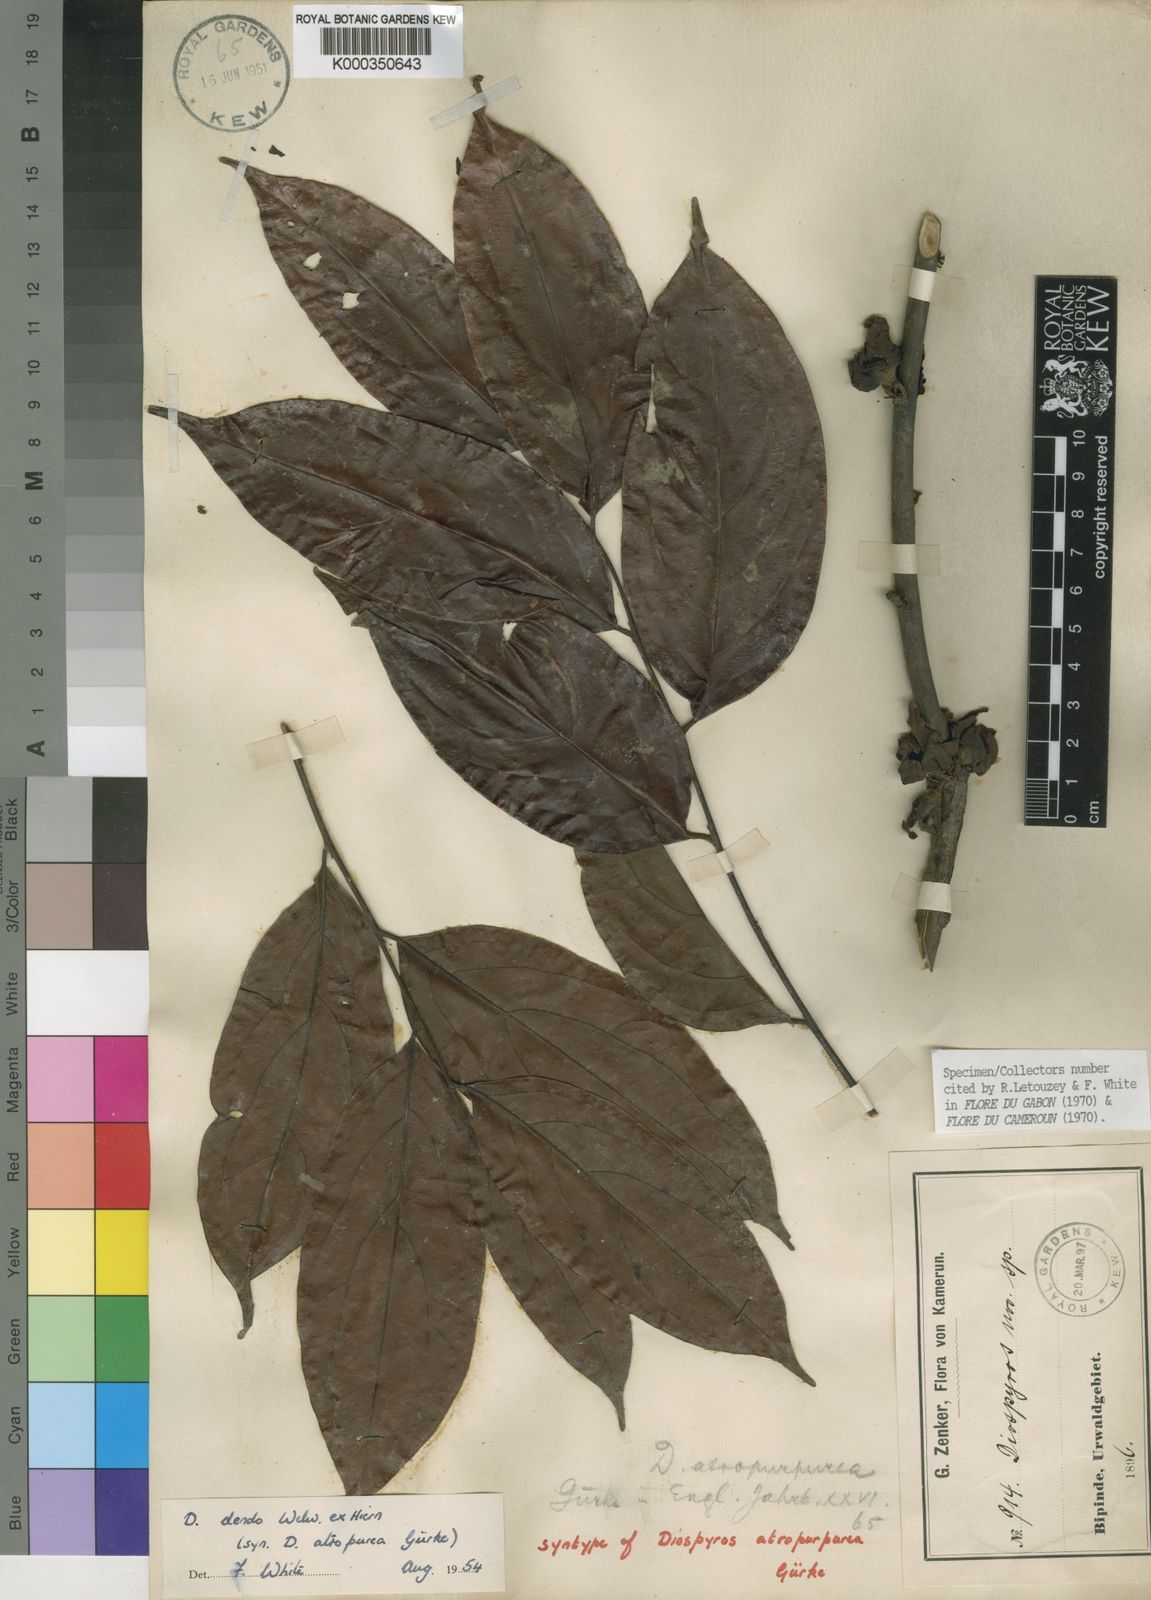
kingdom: Plantae
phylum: Tracheophyta
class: Magnoliopsida
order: Ericales
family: Ebenaceae
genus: Diospyros
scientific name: Diospyros dendo
